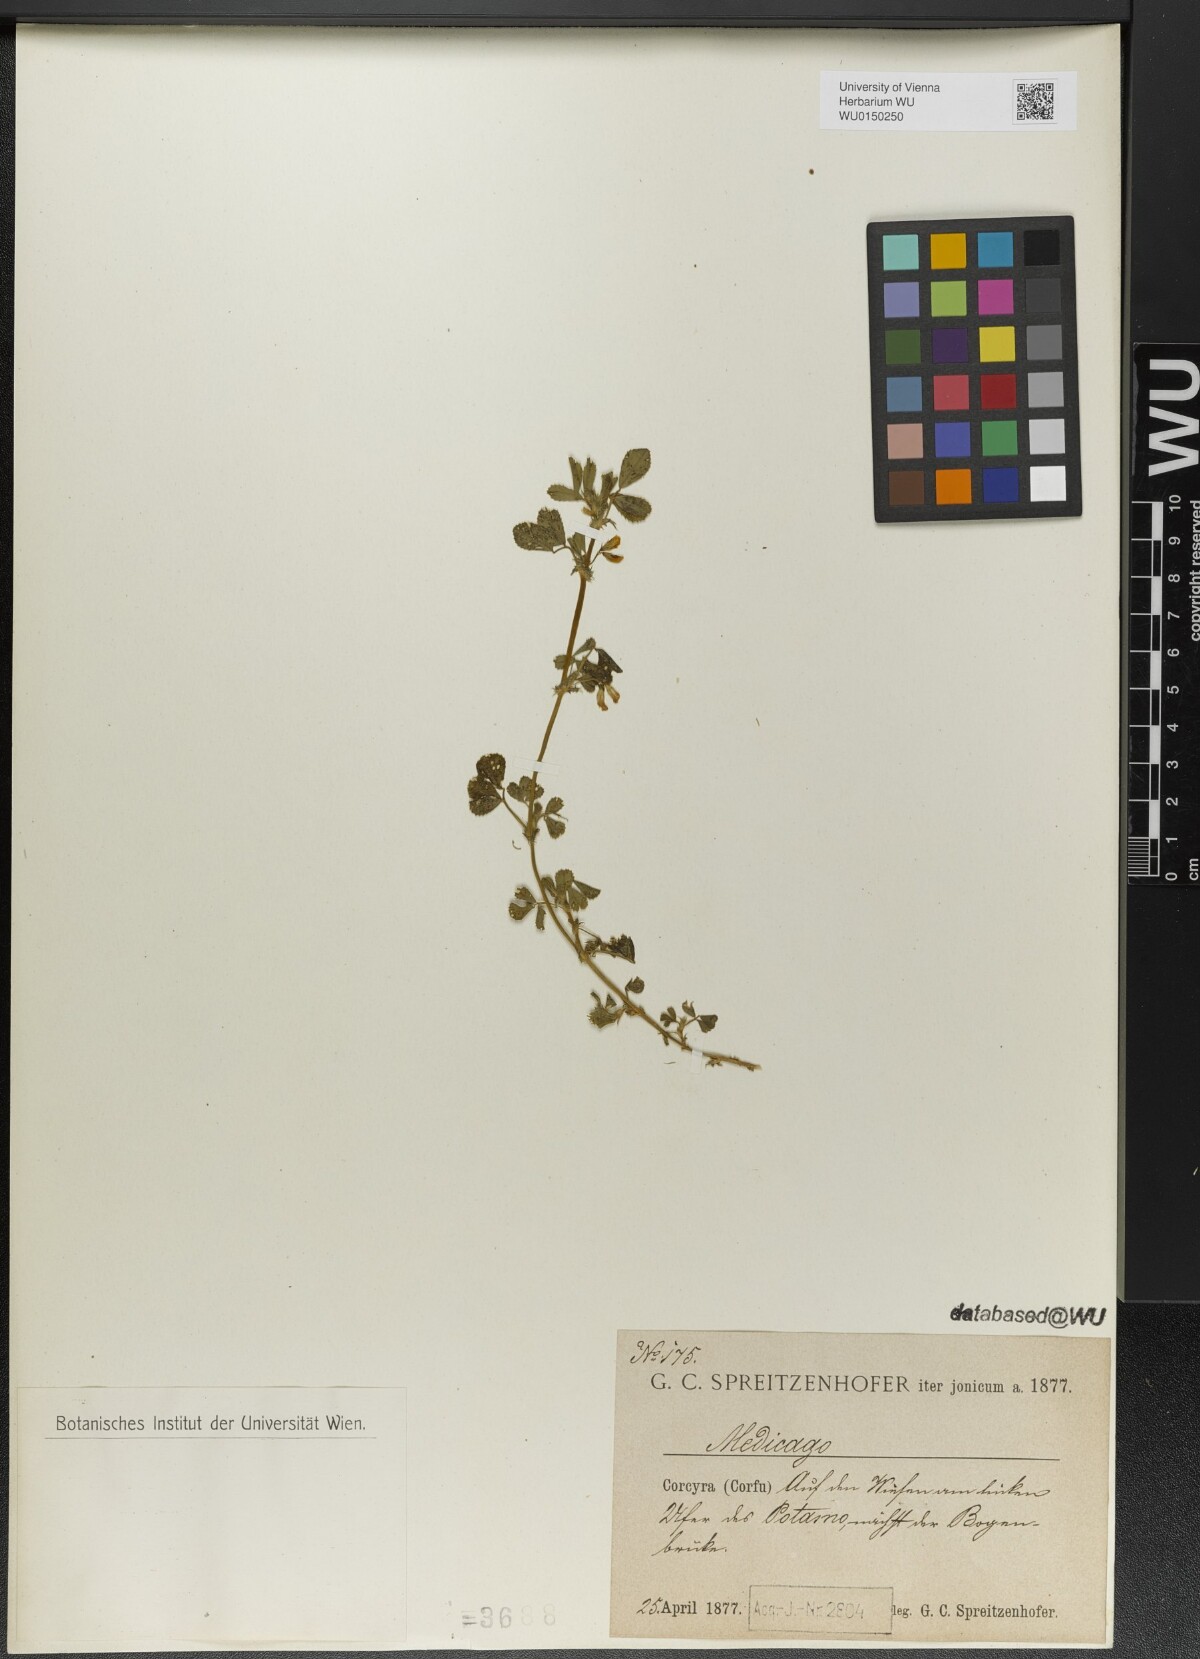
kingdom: Plantae
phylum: Tracheophyta
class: Magnoliopsida
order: Fabales
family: Fabaceae
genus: Medicago
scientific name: Medicago
